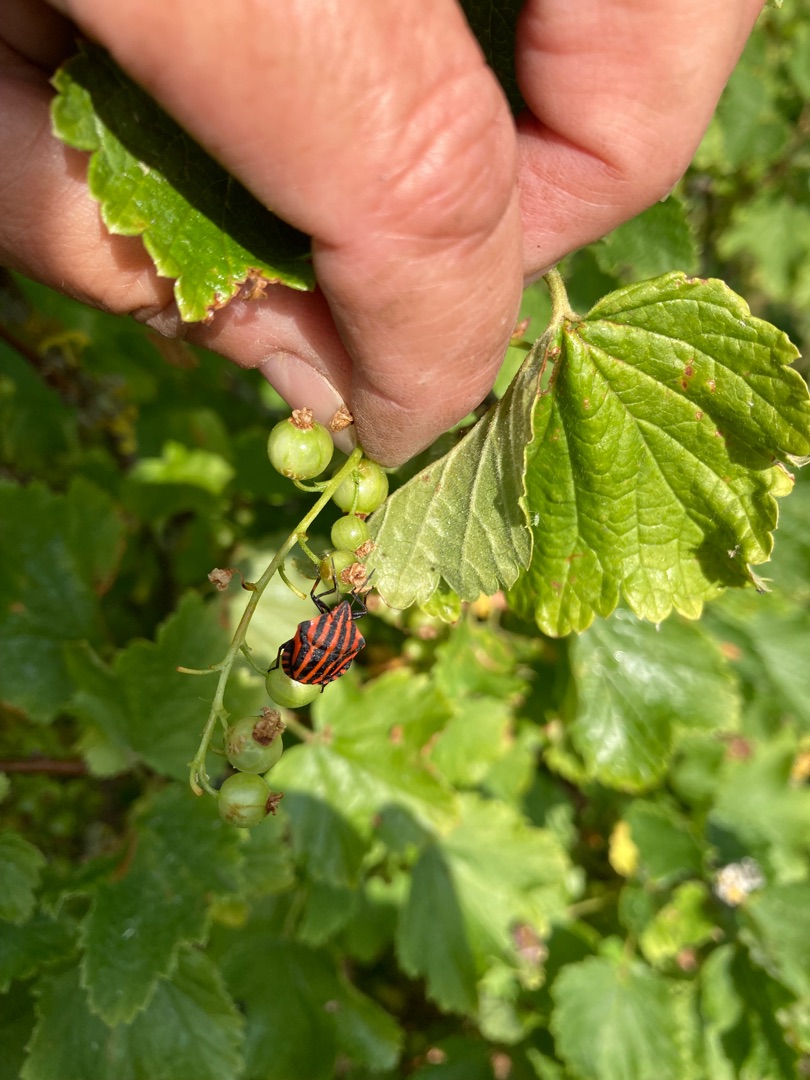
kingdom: Animalia
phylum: Arthropoda
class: Insecta
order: Hemiptera
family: Pentatomidae
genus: Graphosoma
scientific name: Graphosoma italicum
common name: Stribetæge
